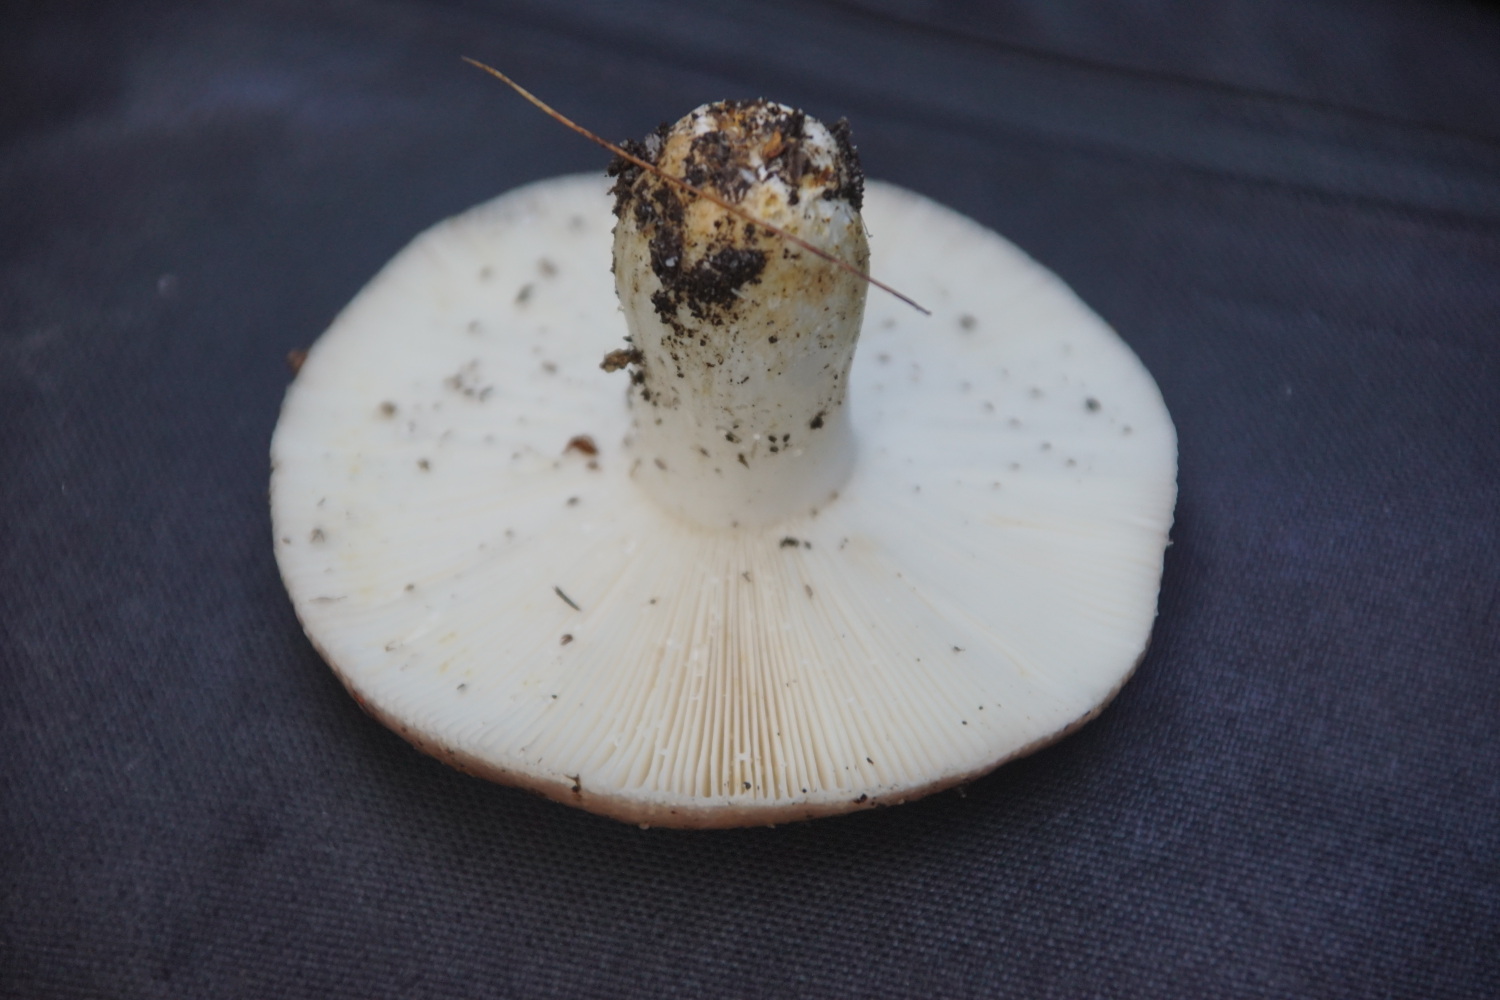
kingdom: Fungi
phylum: Basidiomycota
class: Agaricomycetes
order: Russulales
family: Russulaceae
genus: Russula
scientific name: Russula vesca
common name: spiselig skørhat
